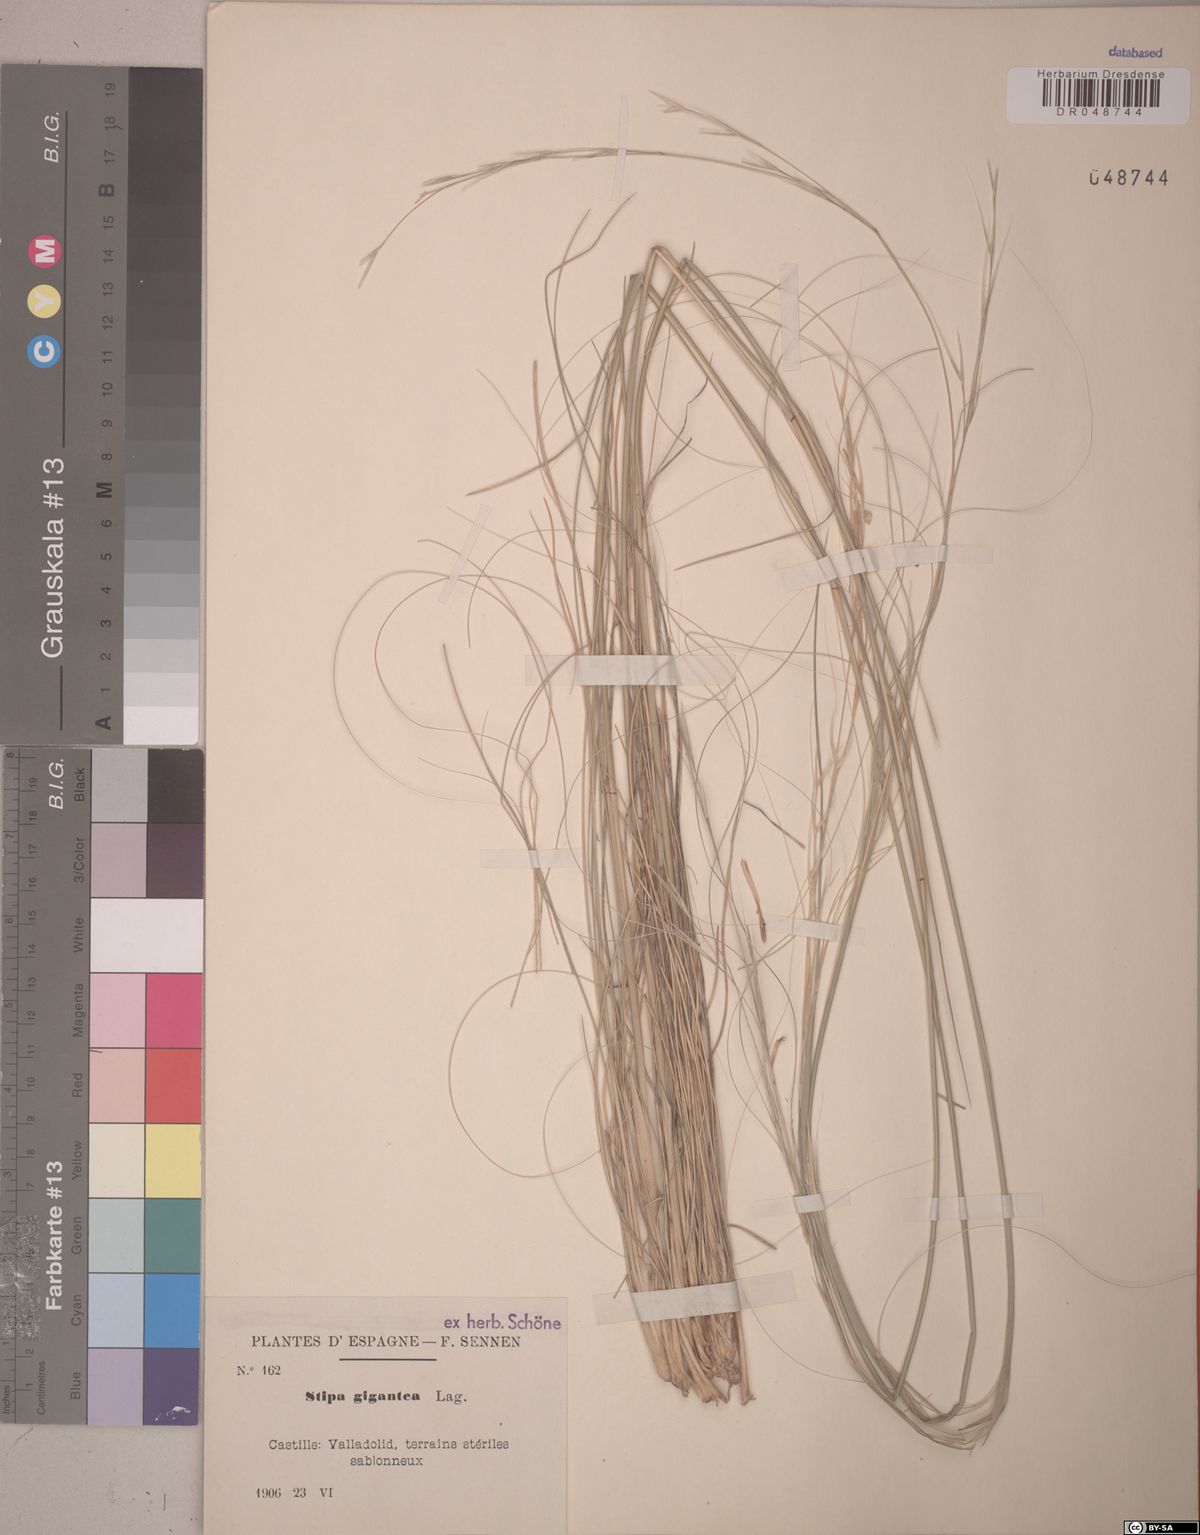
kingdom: Plantae
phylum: Tracheophyta
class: Liliopsida
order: Poales
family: Poaceae
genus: Celtica
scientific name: Celtica gigantea
